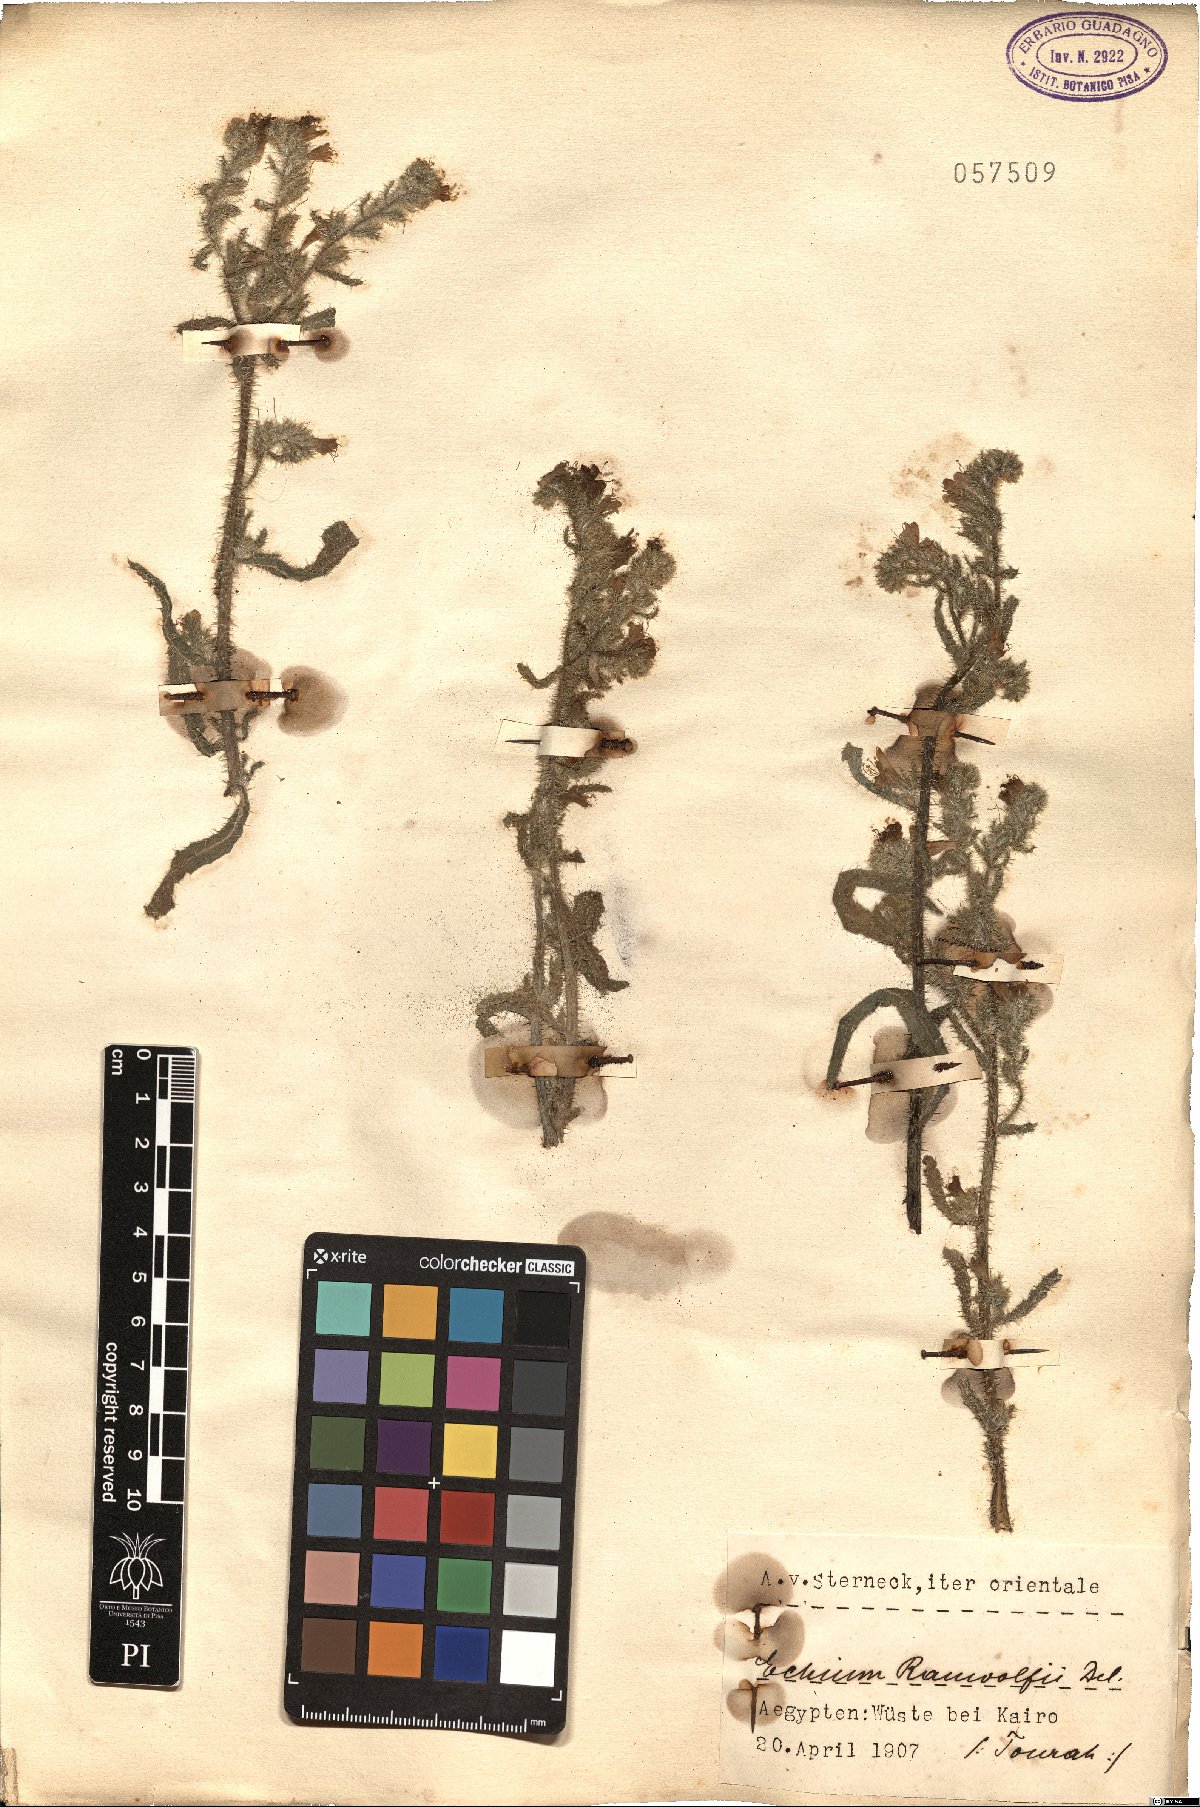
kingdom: Plantae
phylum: Tracheophyta
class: Magnoliopsida
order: Boraginales
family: Boraginaceae
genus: Echium
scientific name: Echium rauwolfii
